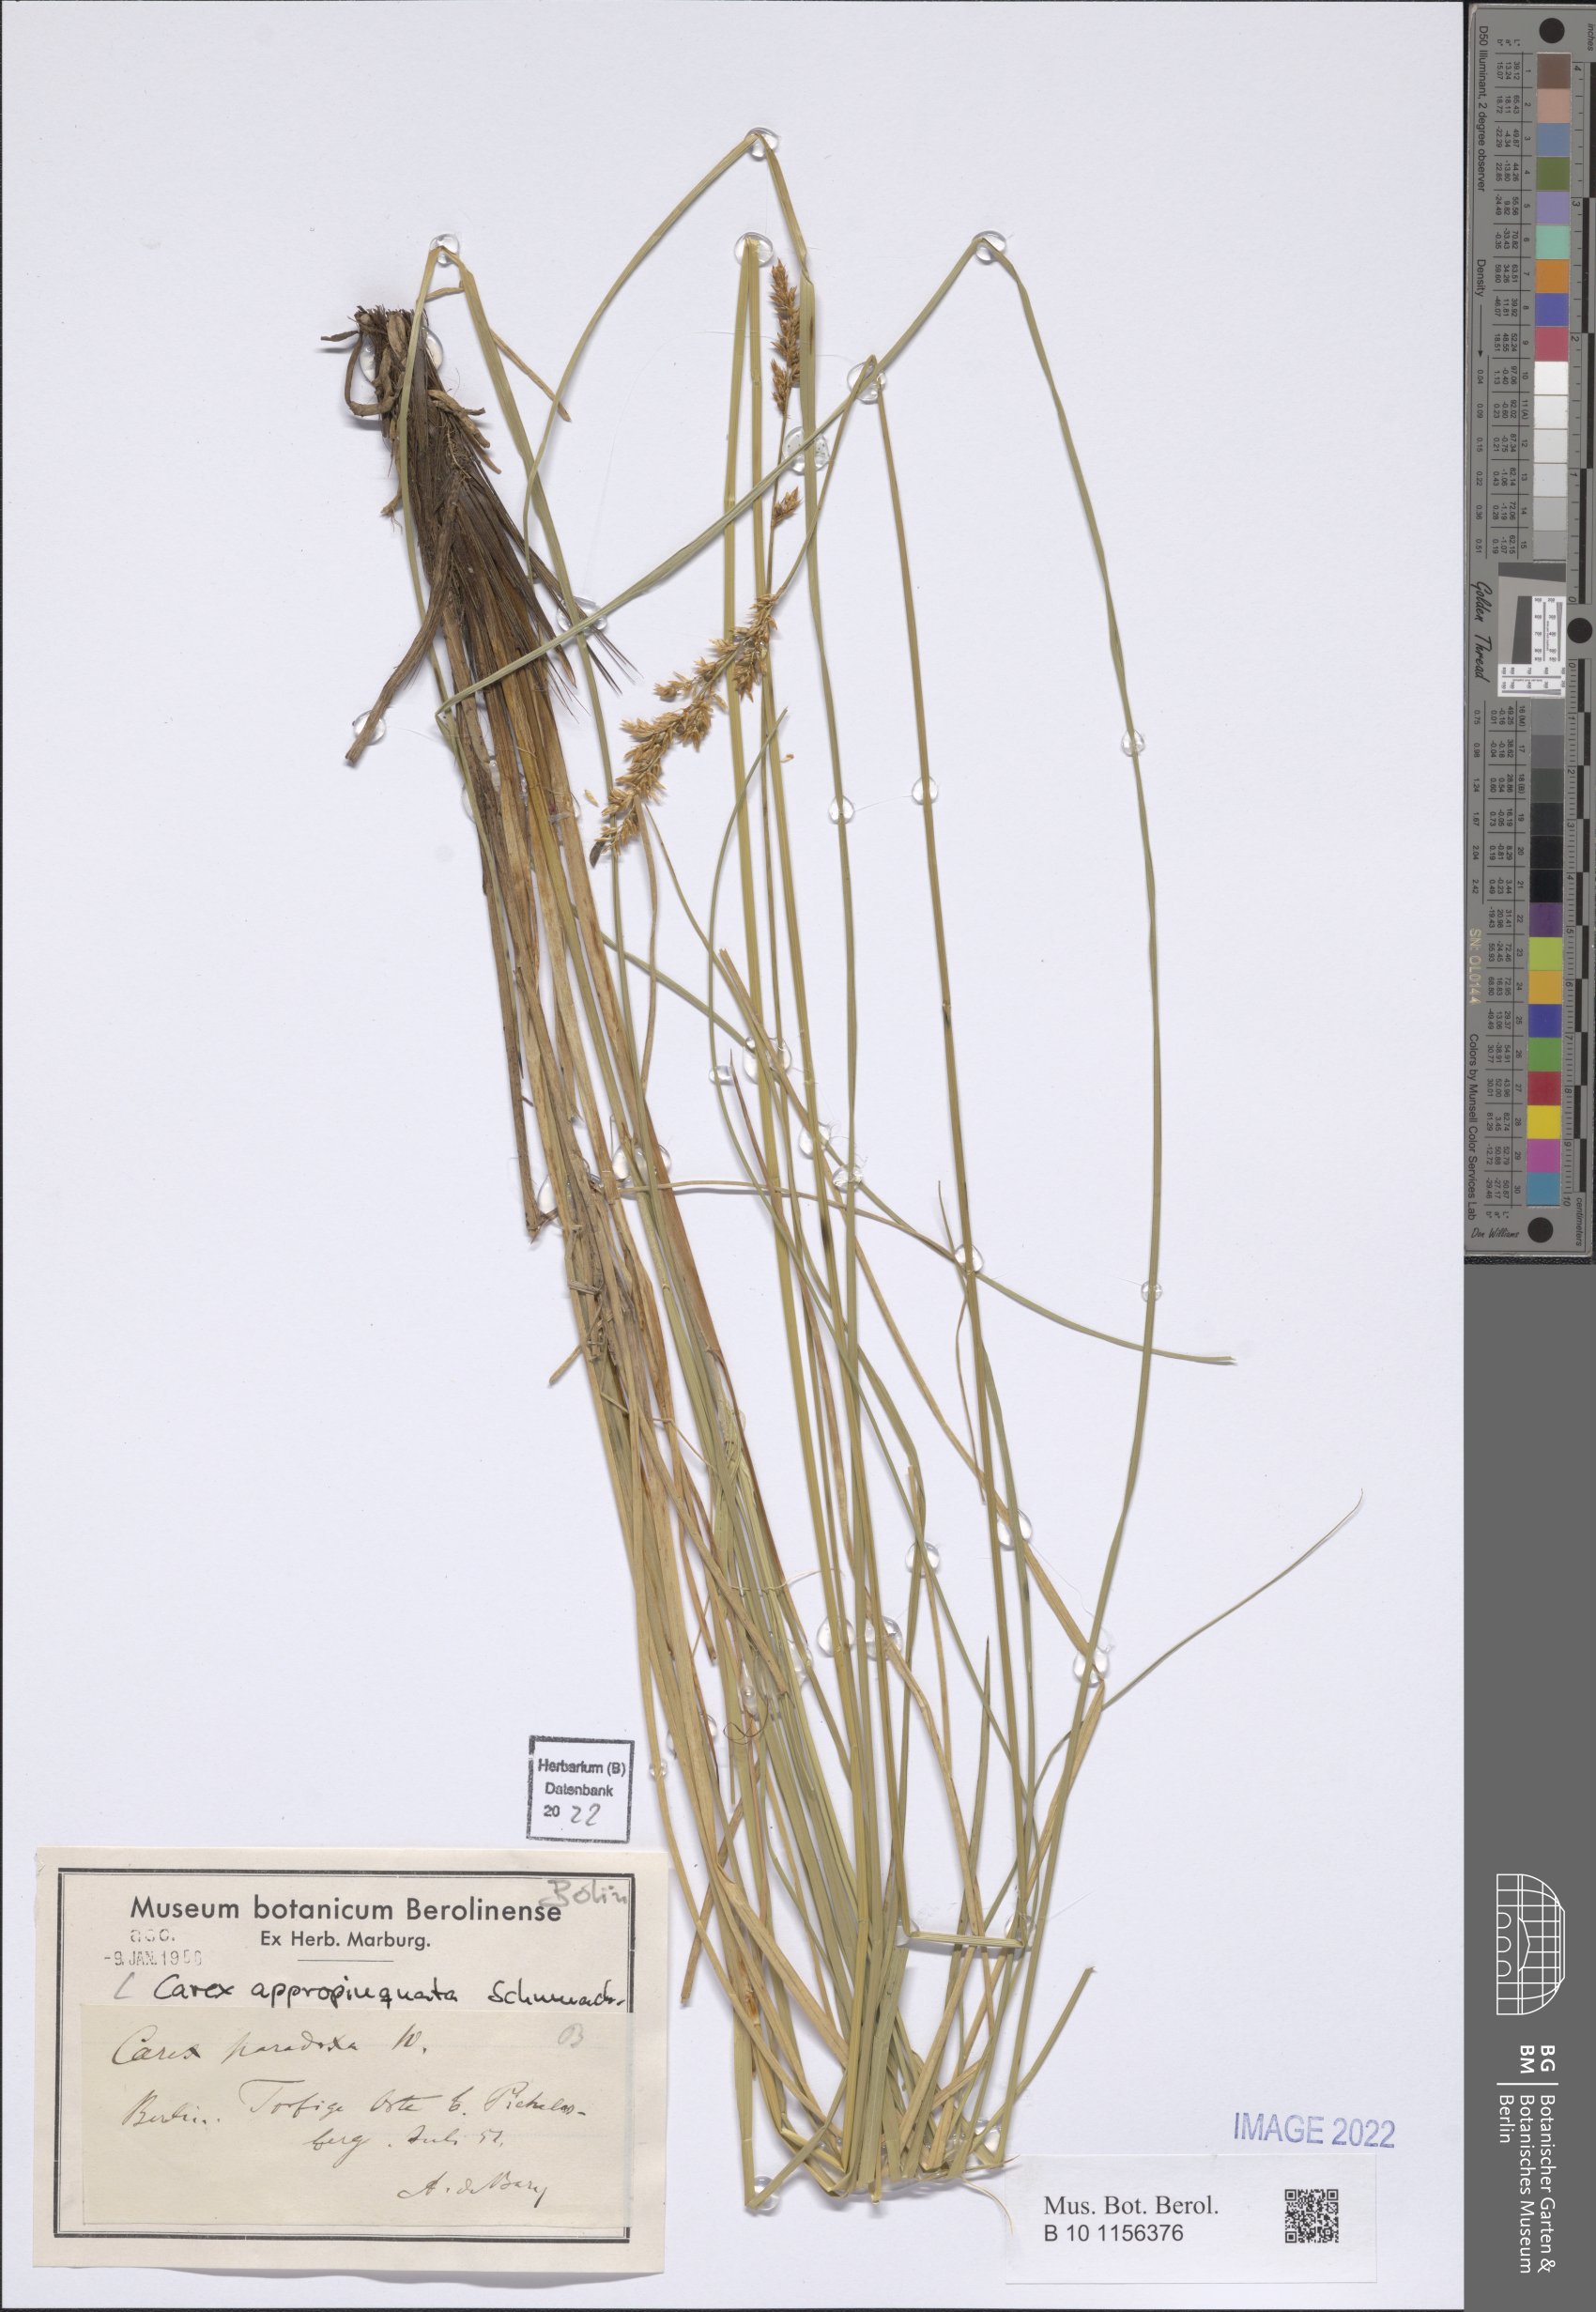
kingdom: Plantae
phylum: Tracheophyta
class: Liliopsida
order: Poales
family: Cyperaceae
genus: Carex
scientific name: Carex appropinquata
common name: Fibrous tussock-sedge
